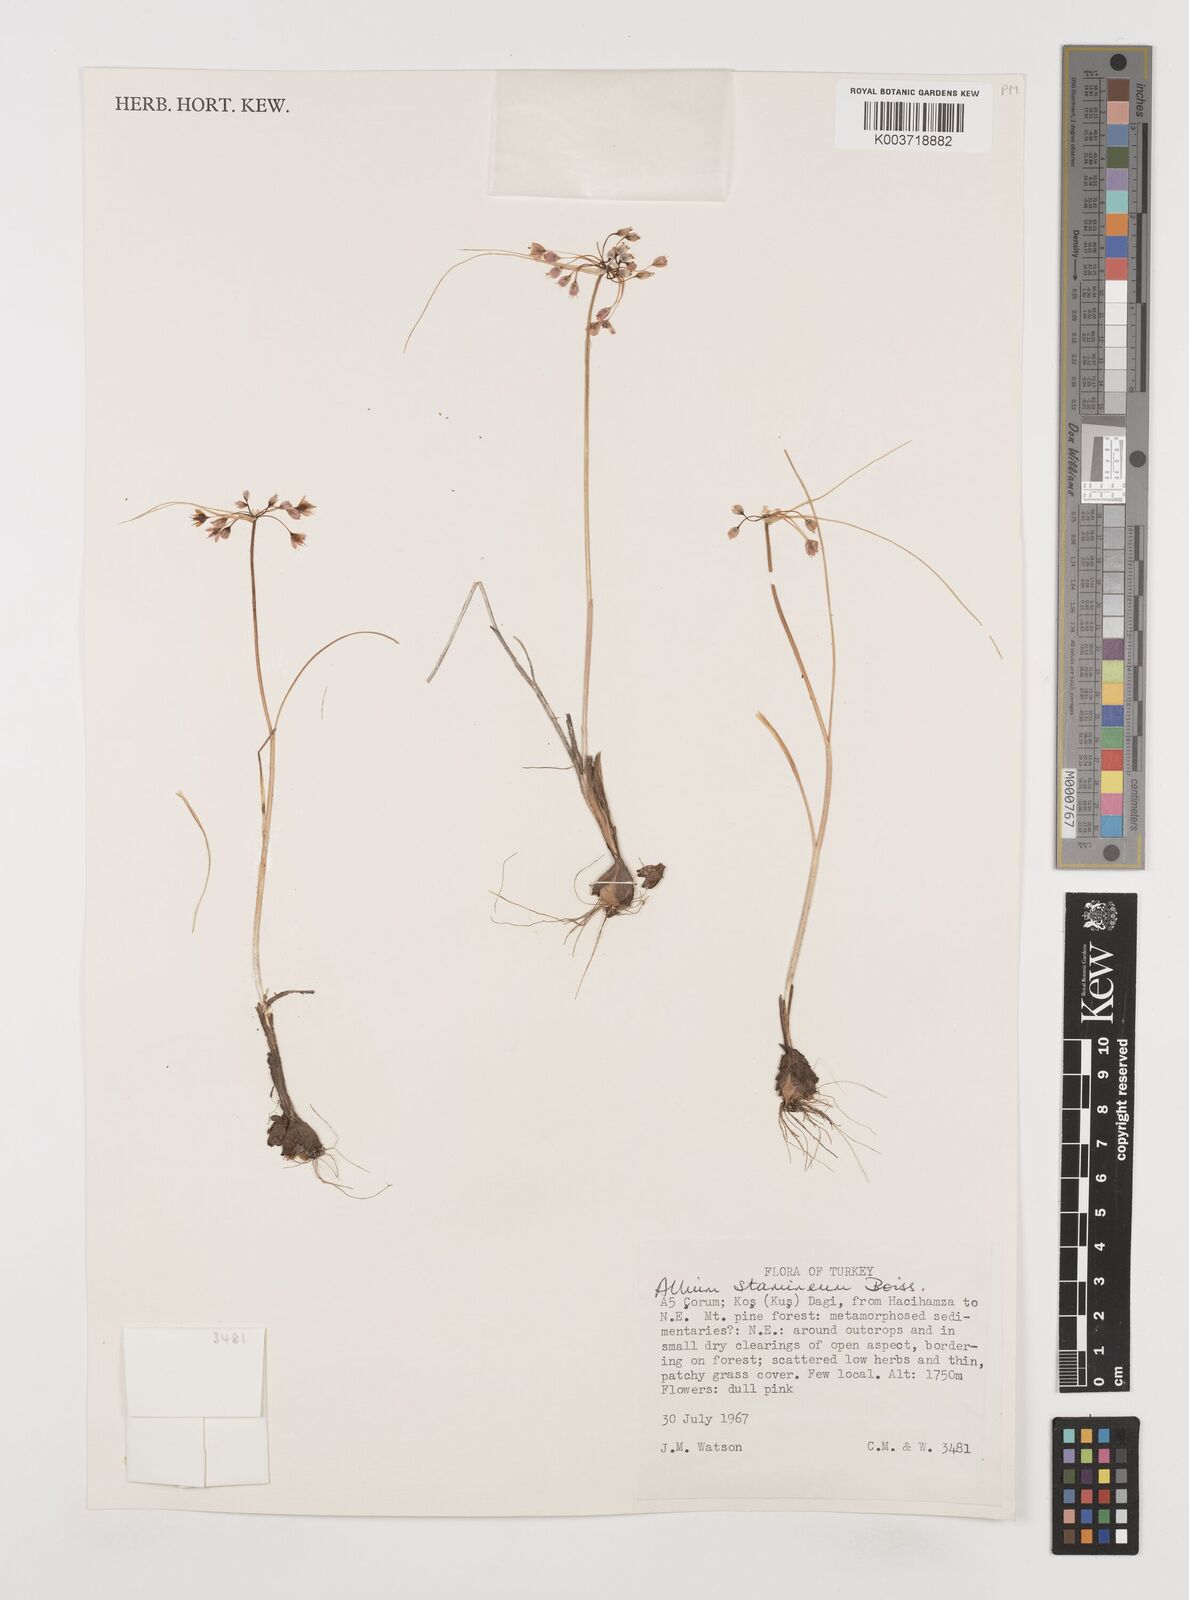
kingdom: Plantae
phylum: Tracheophyta
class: Liliopsida
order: Asparagales
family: Amaryllidaceae
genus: Allium
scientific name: Allium stamineum
